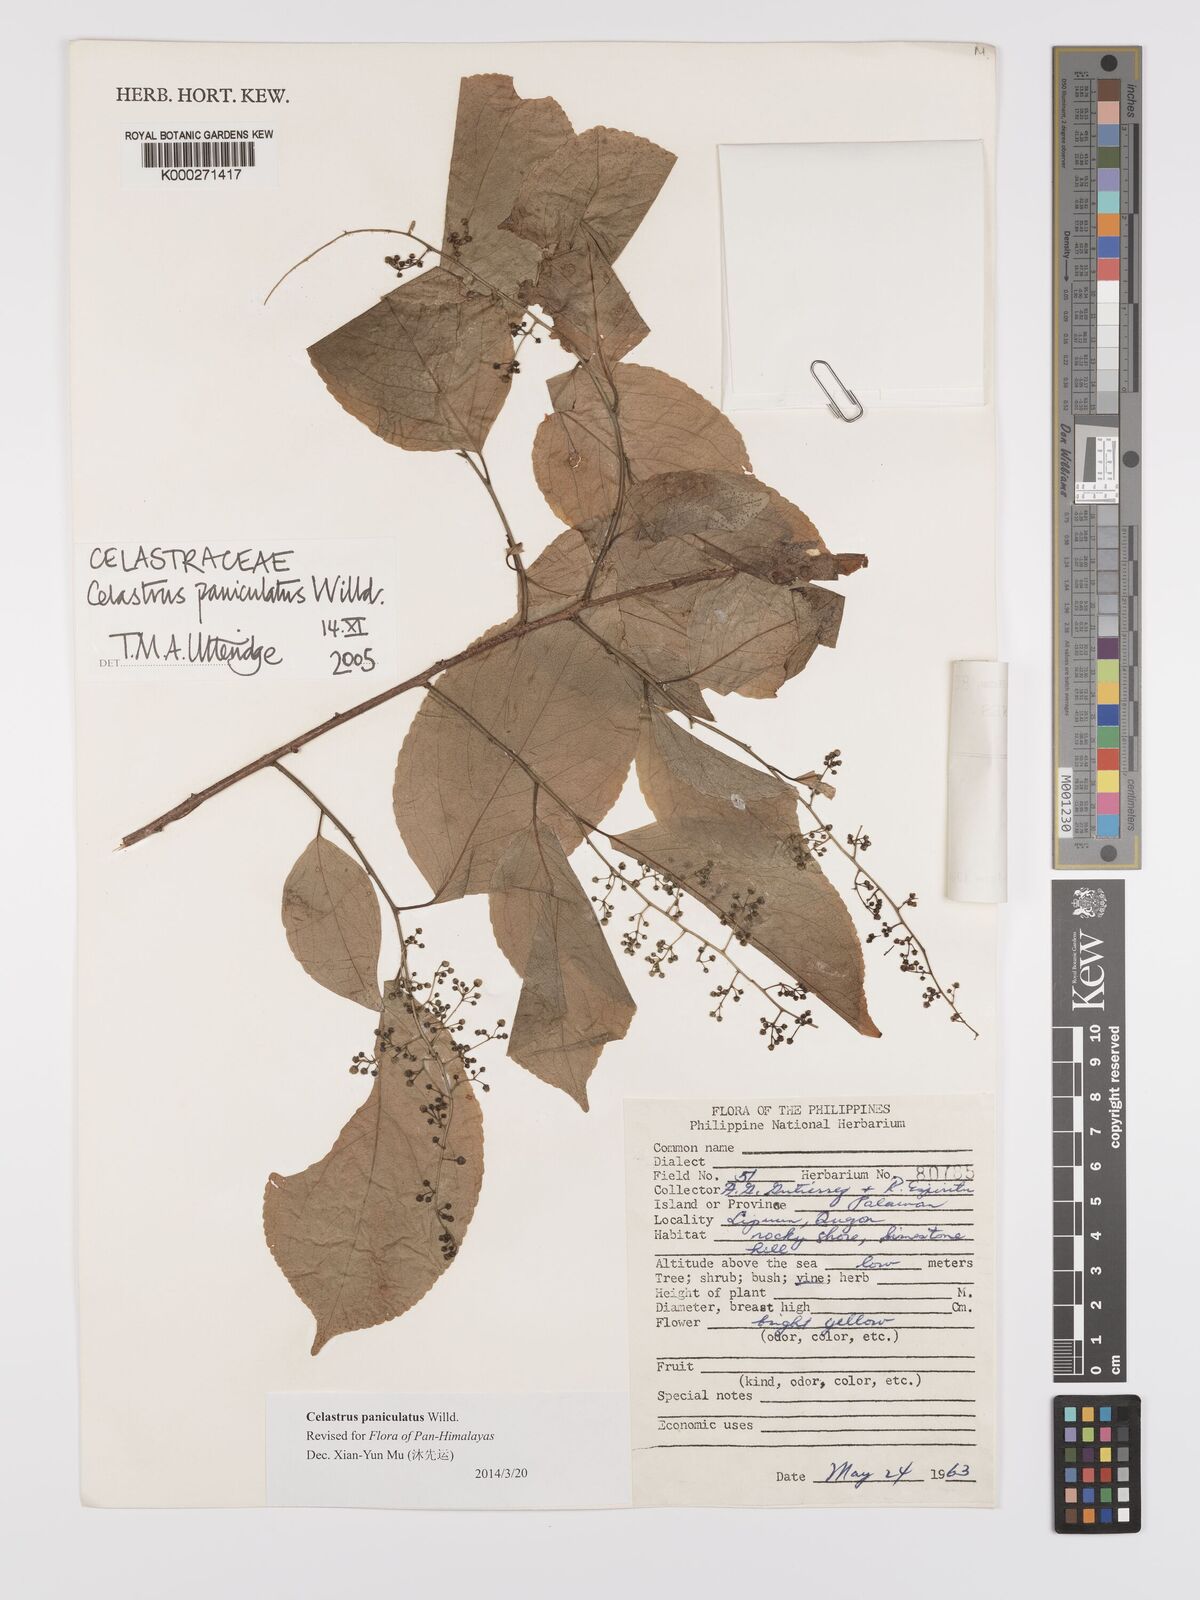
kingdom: Plantae
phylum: Tracheophyta
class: Magnoliopsida
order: Celastrales
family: Celastraceae
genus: Celastrus
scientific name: Celastrus paniculatus
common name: Oriental bittersweet; staff vine
